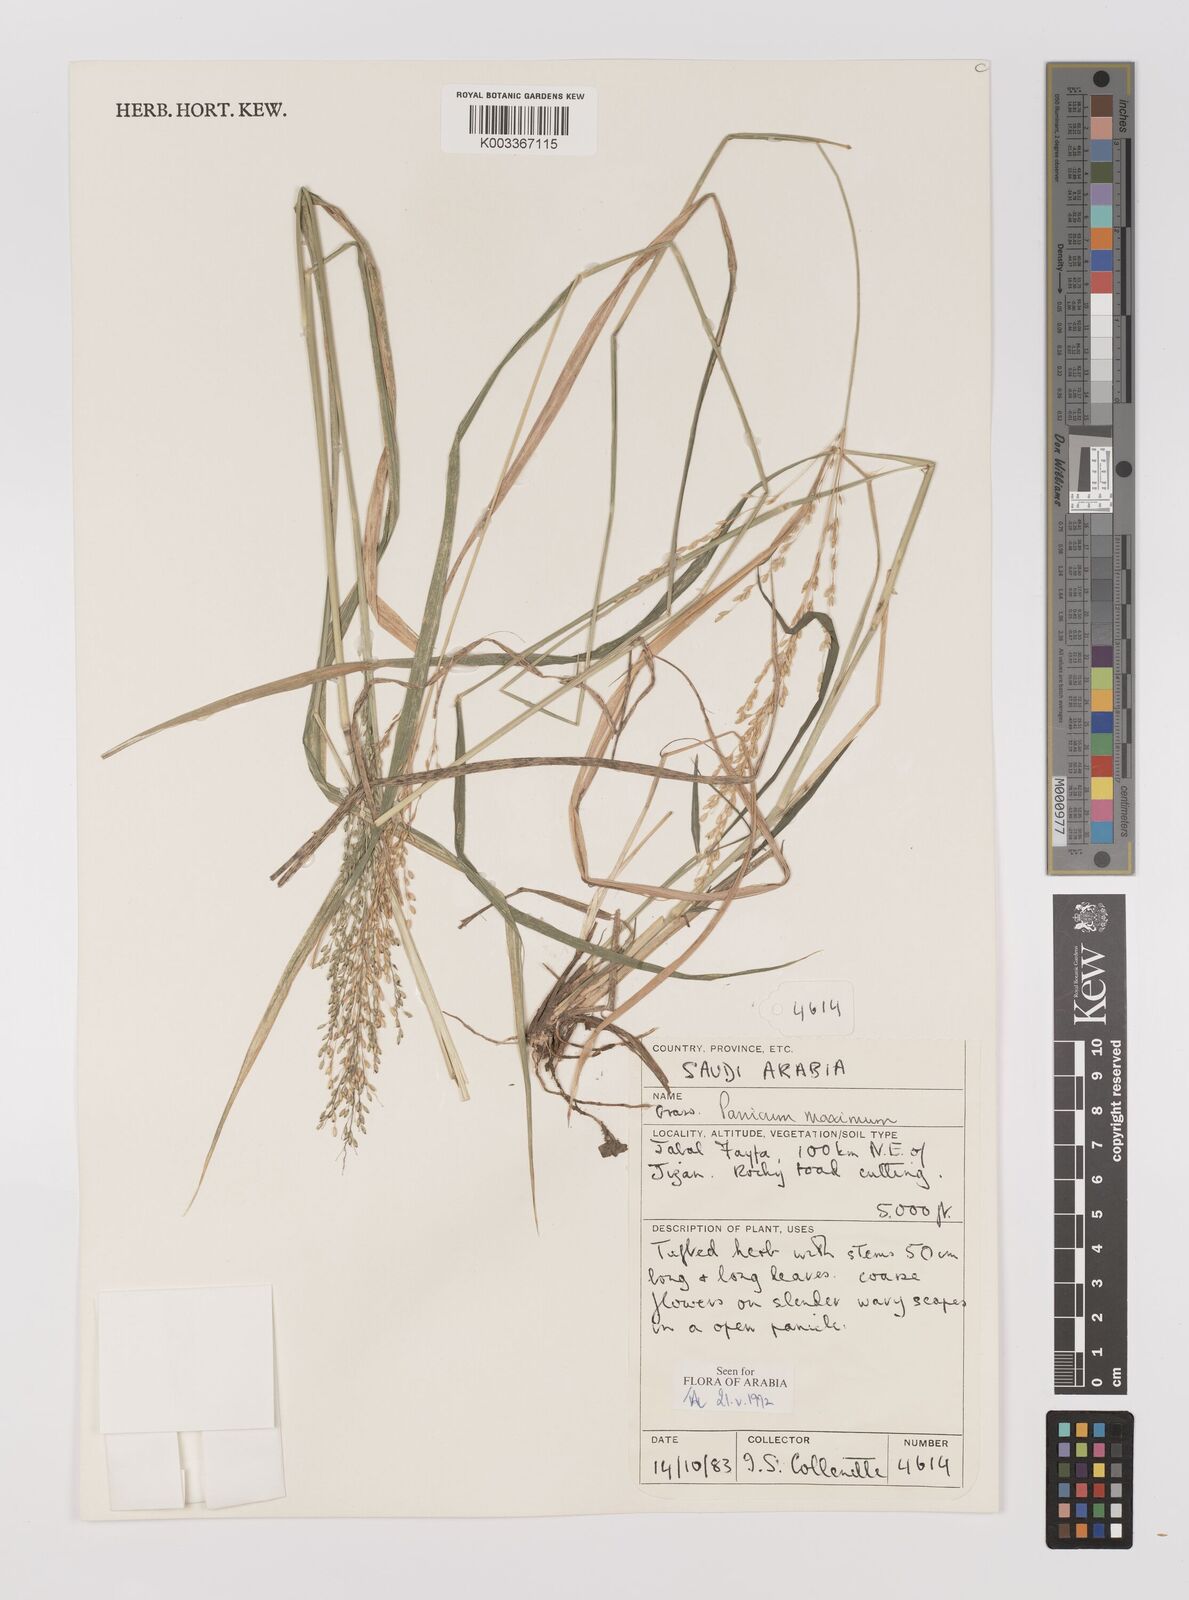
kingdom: Plantae
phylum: Tracheophyta
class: Liliopsida
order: Poales
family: Poaceae
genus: Megathyrsus
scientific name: Megathyrsus maximus
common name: Guineagrass
